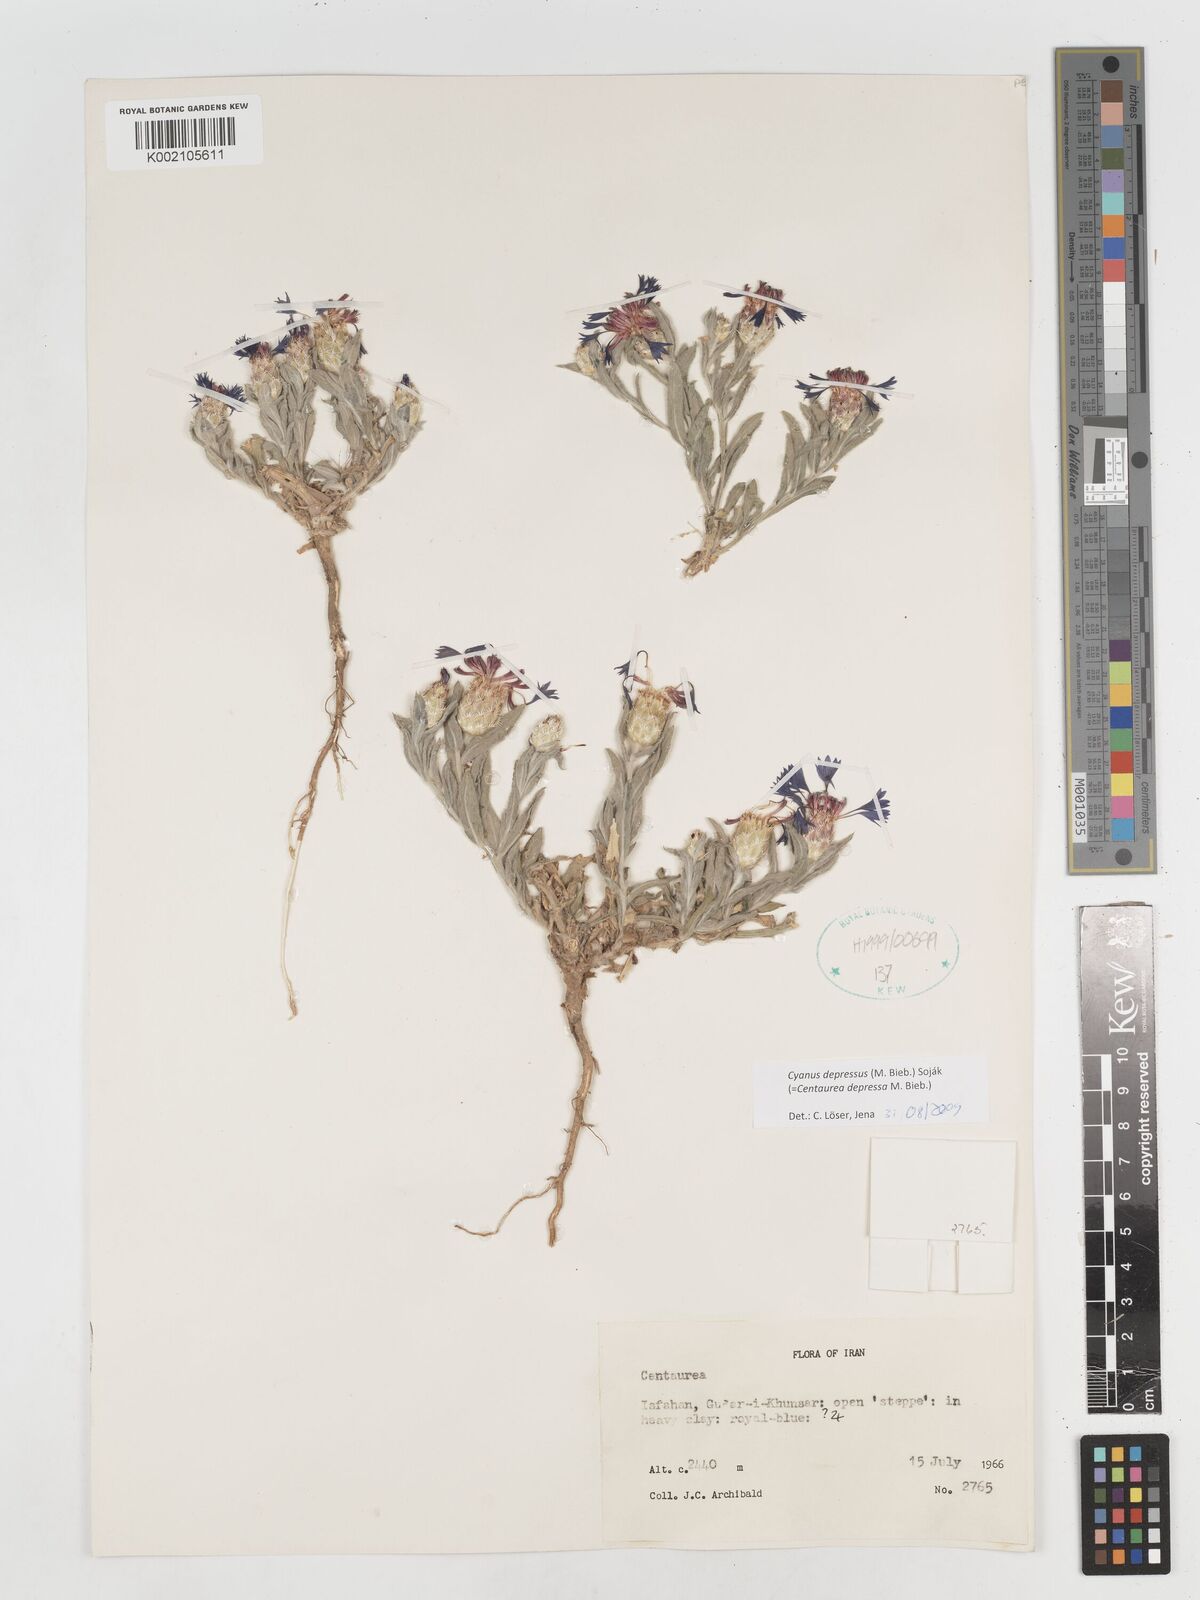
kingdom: Plantae
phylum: Tracheophyta
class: Magnoliopsida
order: Asterales
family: Asteraceae
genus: Centaurea
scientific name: Centaurea depressa
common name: Iranian knapweed
